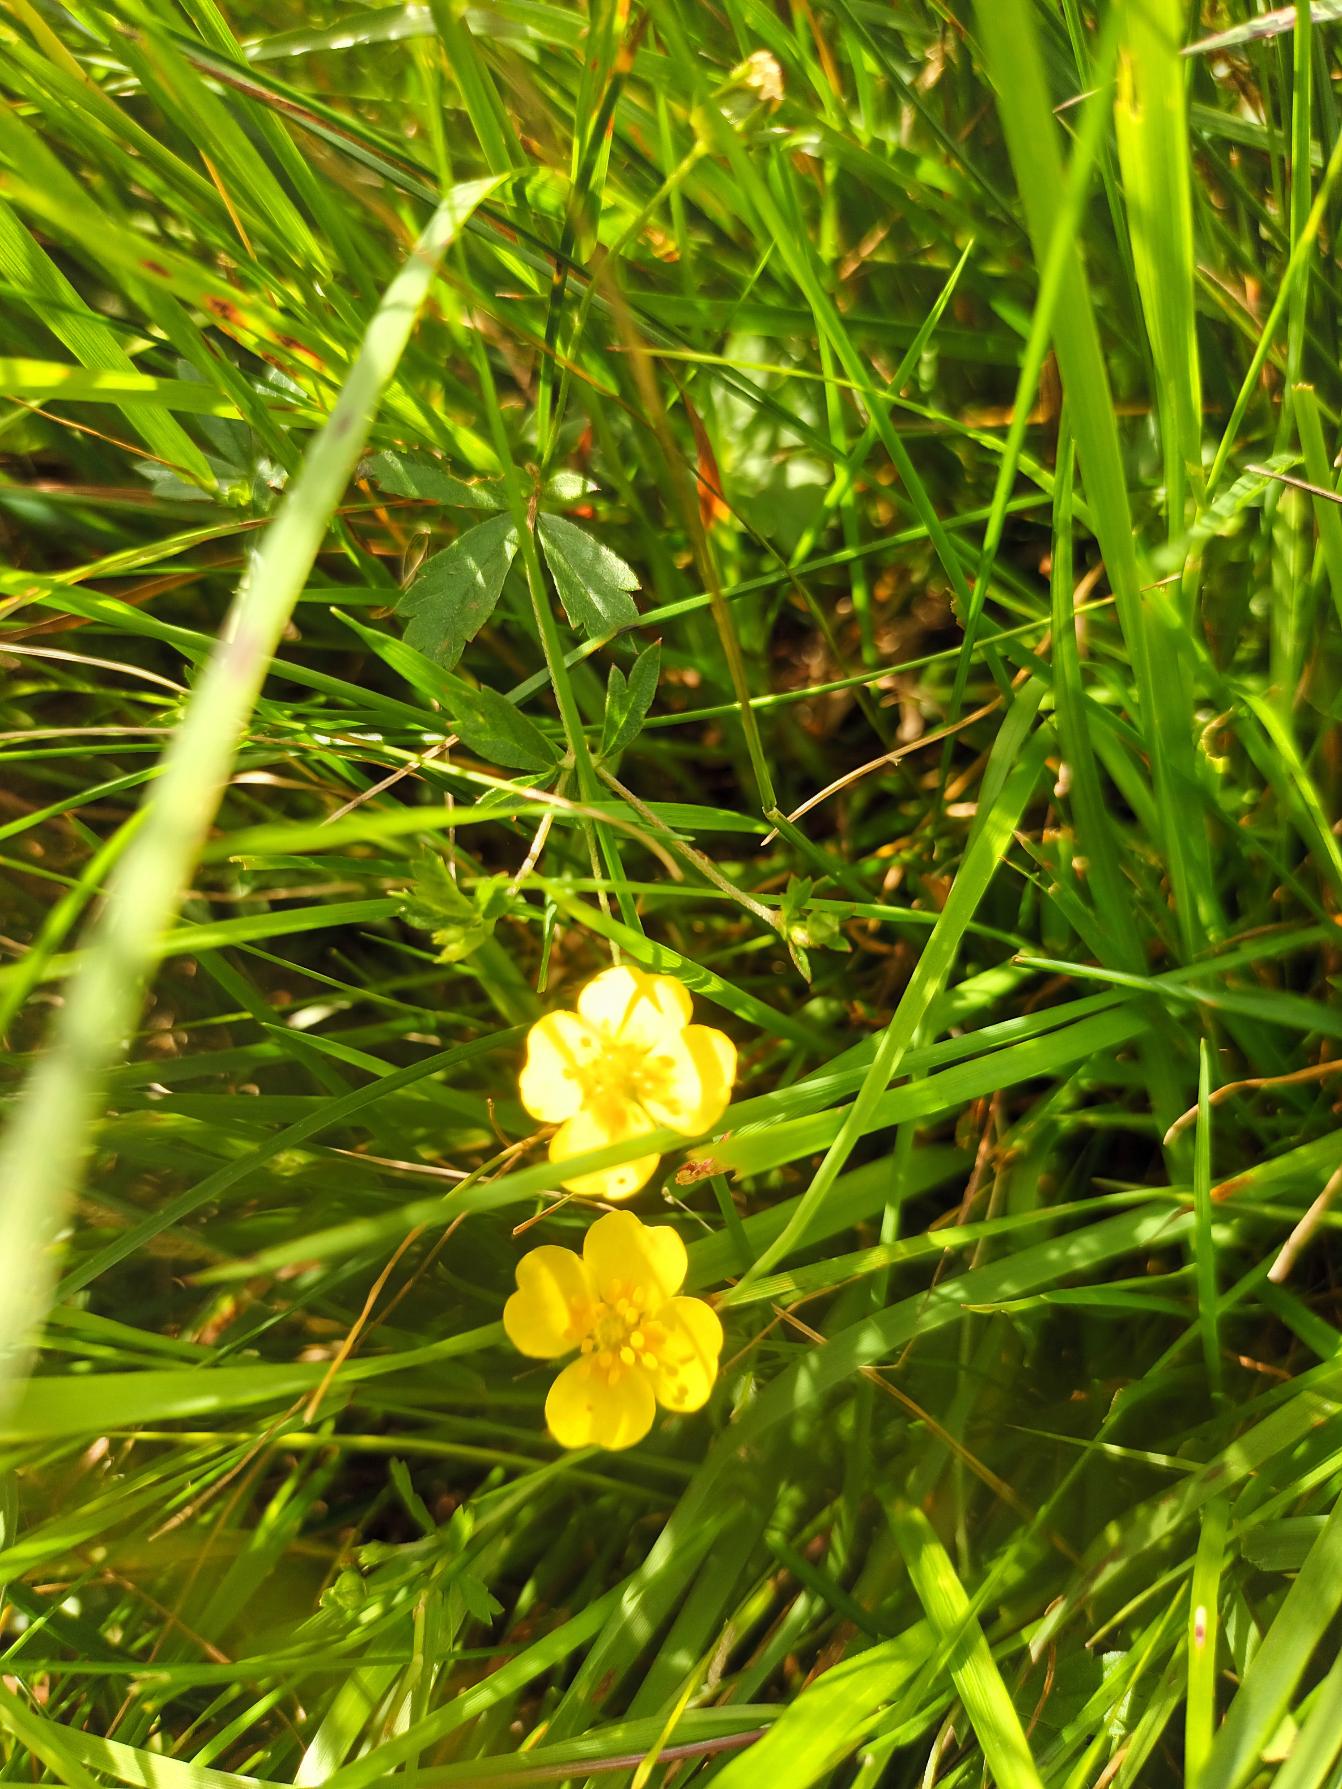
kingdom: Plantae
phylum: Tracheophyta
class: Magnoliopsida
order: Rosales
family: Rosaceae
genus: Potentilla
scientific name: Potentilla anglica
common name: Liggende potentil
